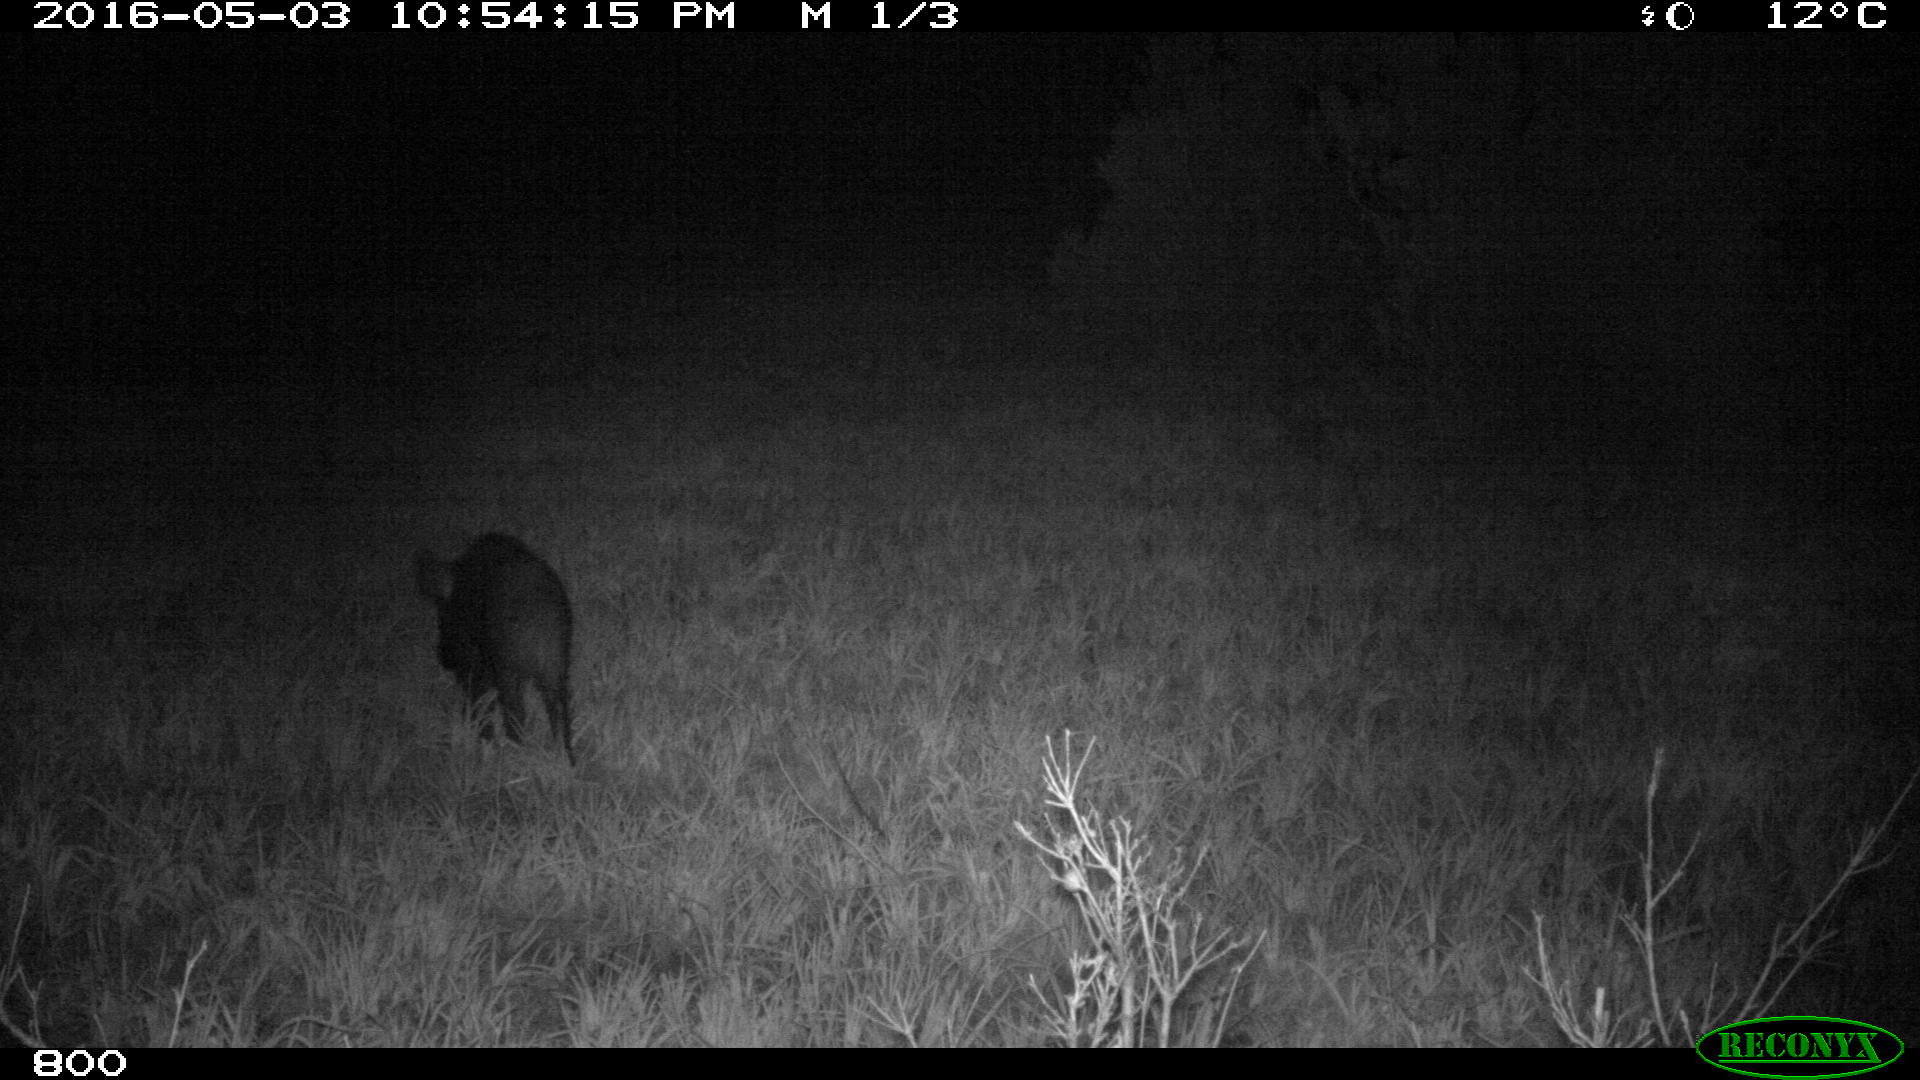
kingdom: Animalia
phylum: Chordata
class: Mammalia
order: Artiodactyla
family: Suidae
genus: Sus
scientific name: Sus scrofa
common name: Wild boar
